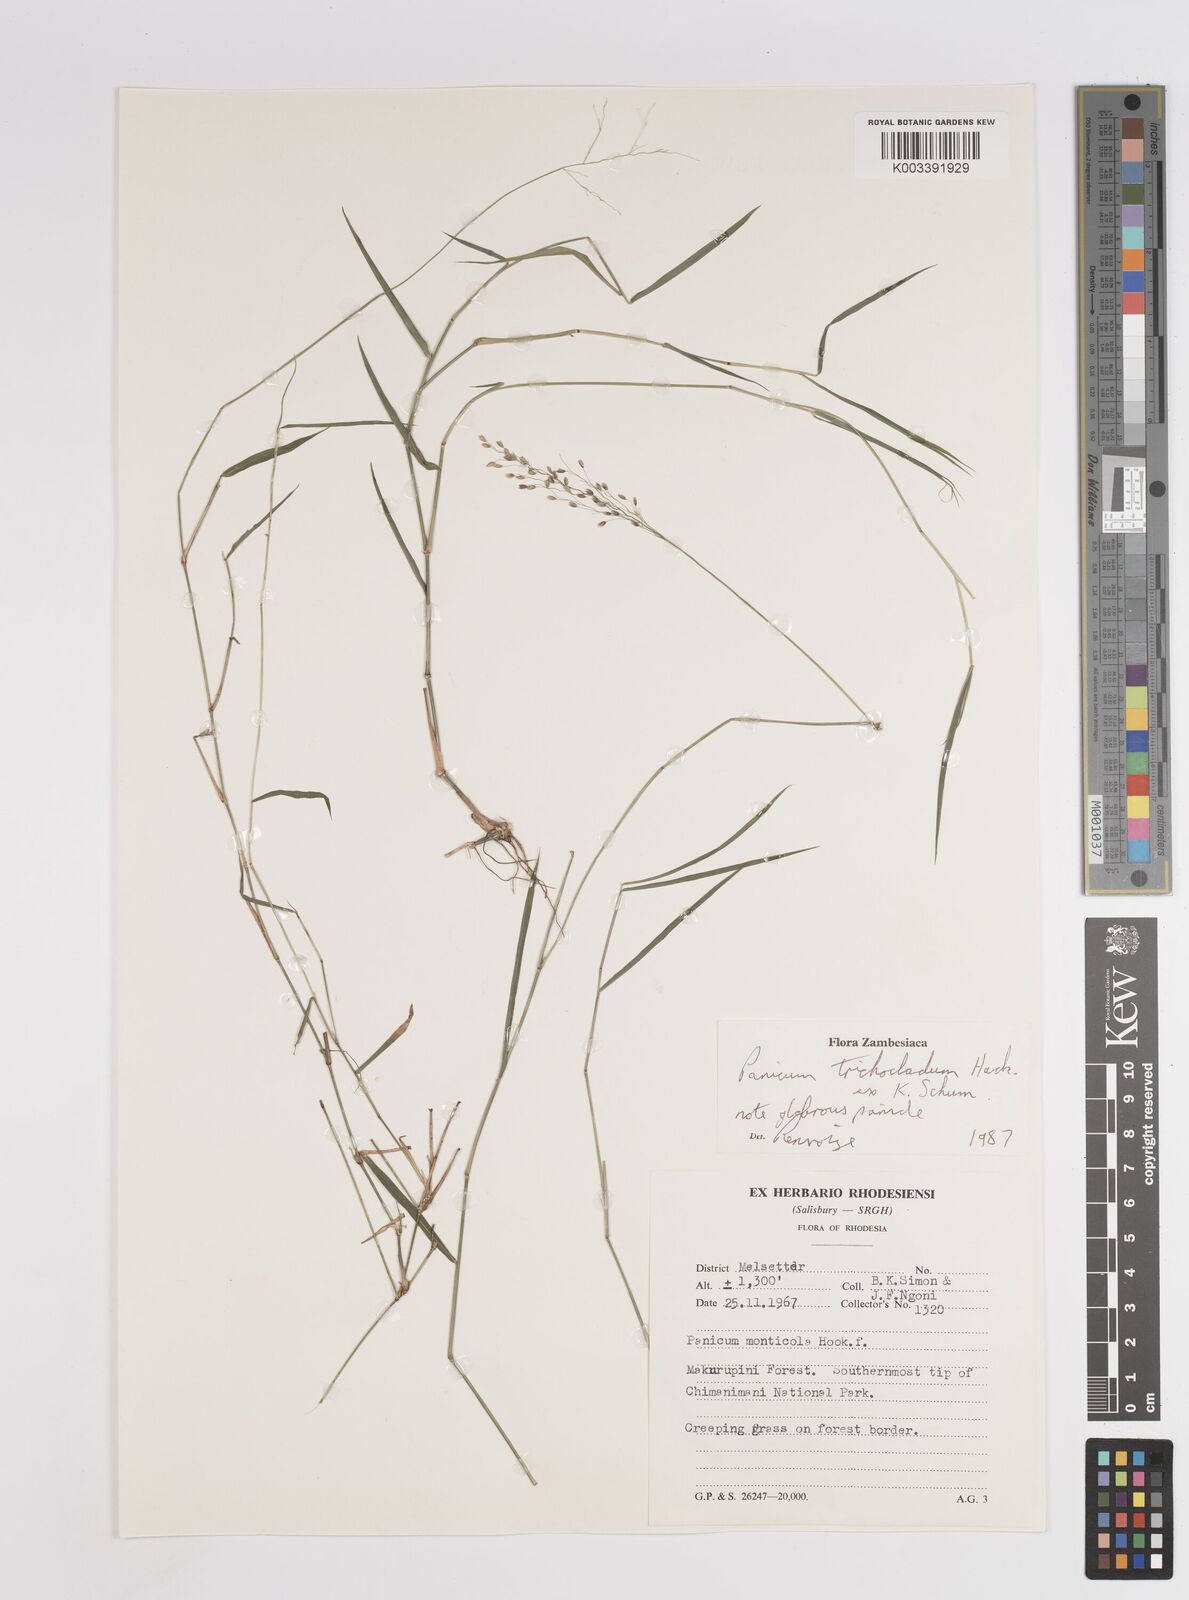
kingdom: Plantae
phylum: Tracheophyta
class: Liliopsida
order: Poales
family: Poaceae
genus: Panicum
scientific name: Panicum trichocladum
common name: Donkey grass
